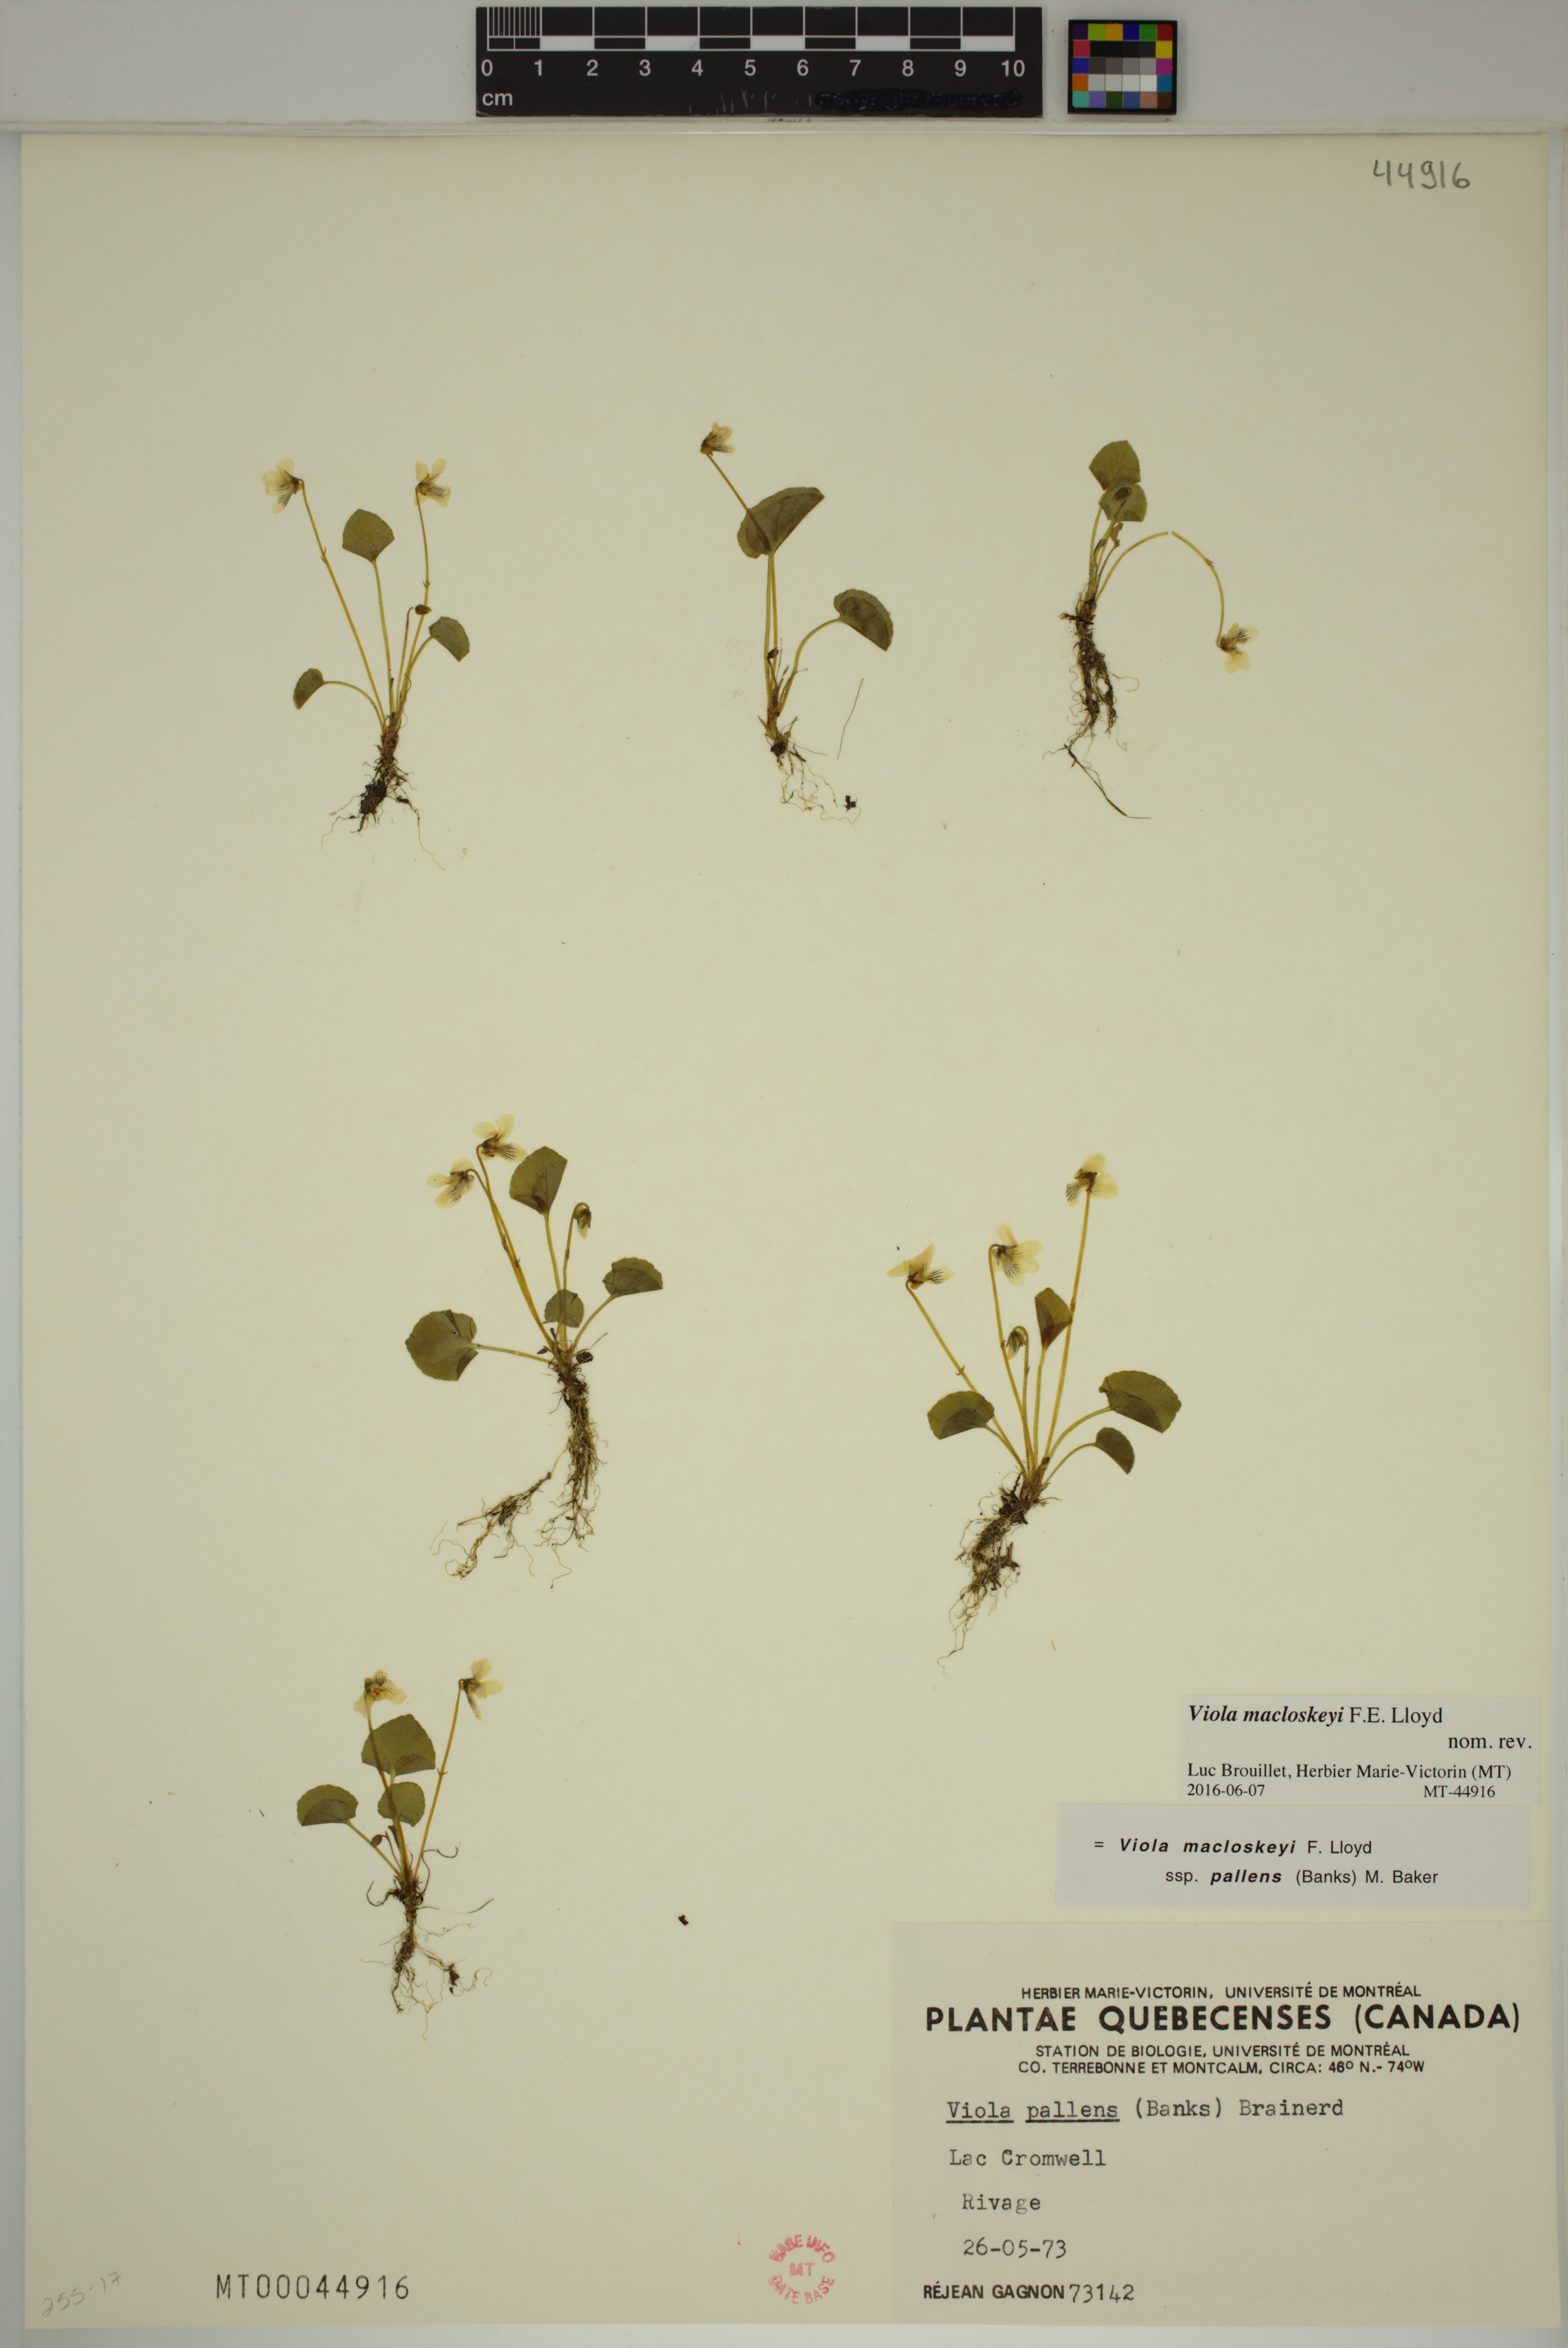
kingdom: Plantae
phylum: Tracheophyta
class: Magnoliopsida
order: Malpighiales
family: Violaceae
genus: Viola
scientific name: Viola macloskeyi
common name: Macloskey's violet
